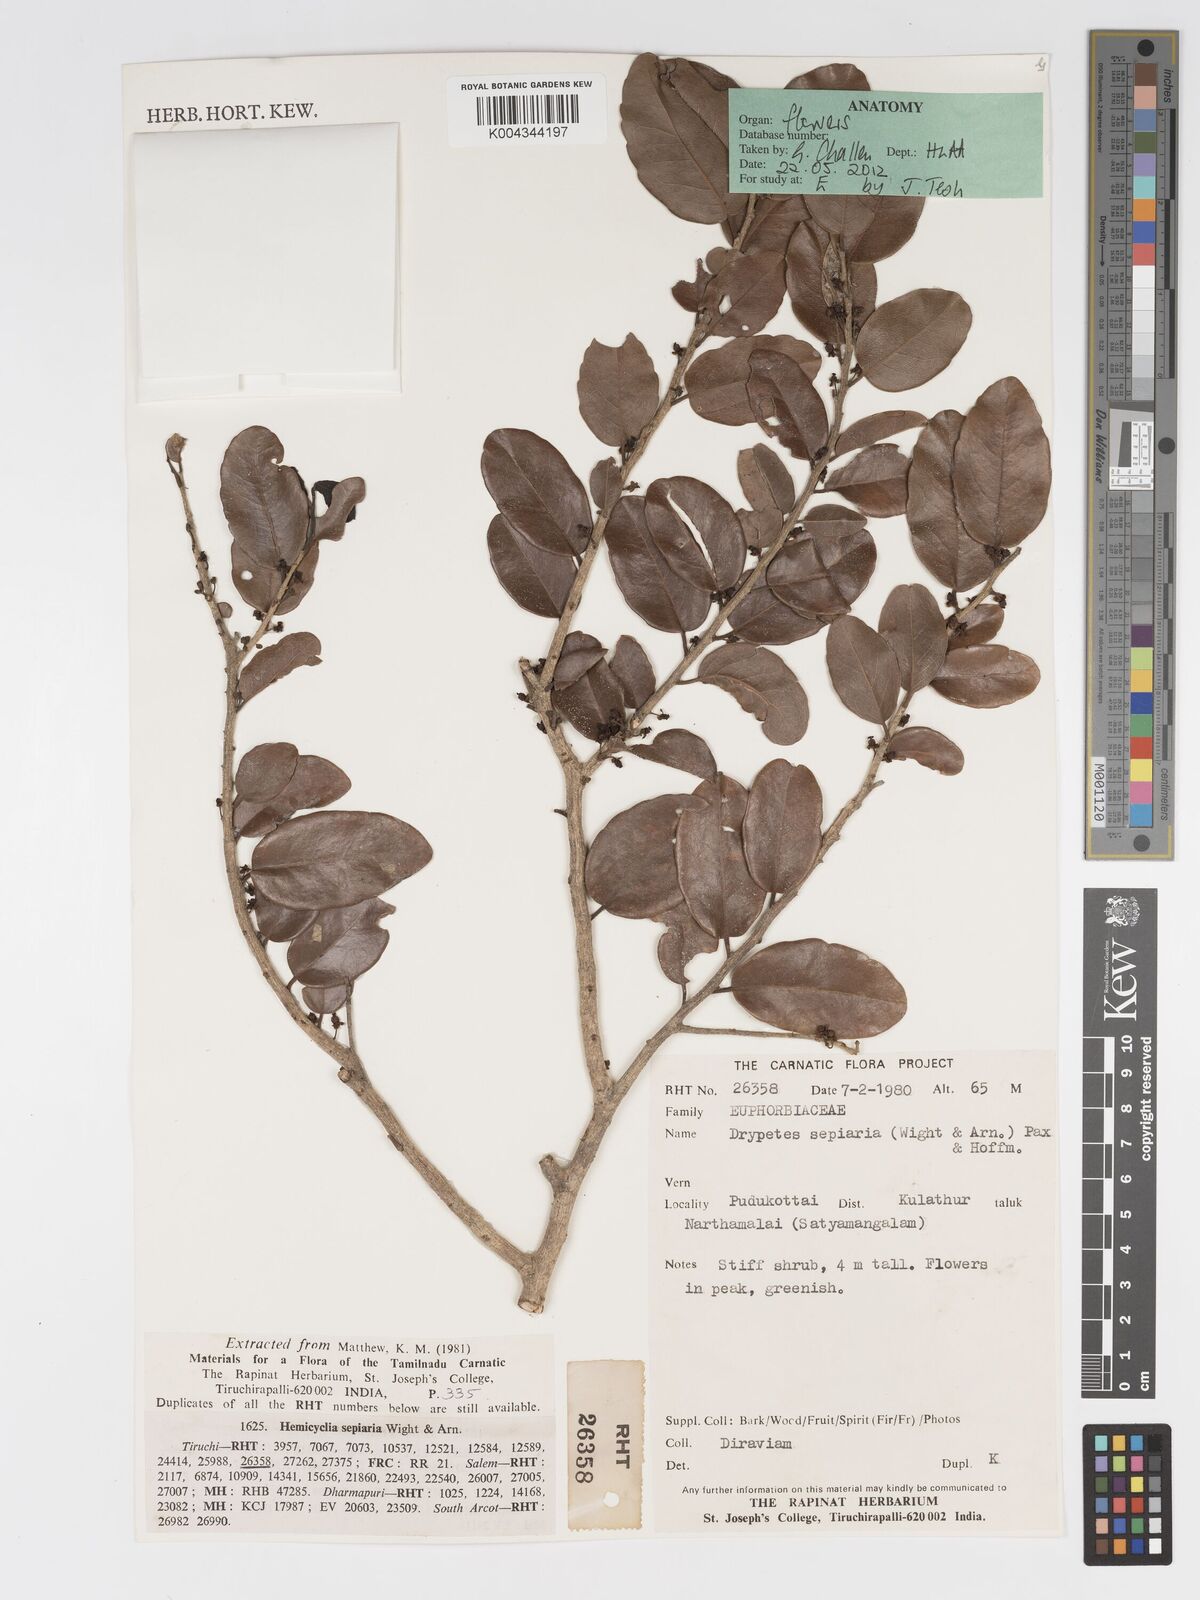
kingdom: Plantae
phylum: Tracheophyta
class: Magnoliopsida
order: Malpighiales
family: Putranjivaceae
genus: Drypetes
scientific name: Drypetes sepiaria
